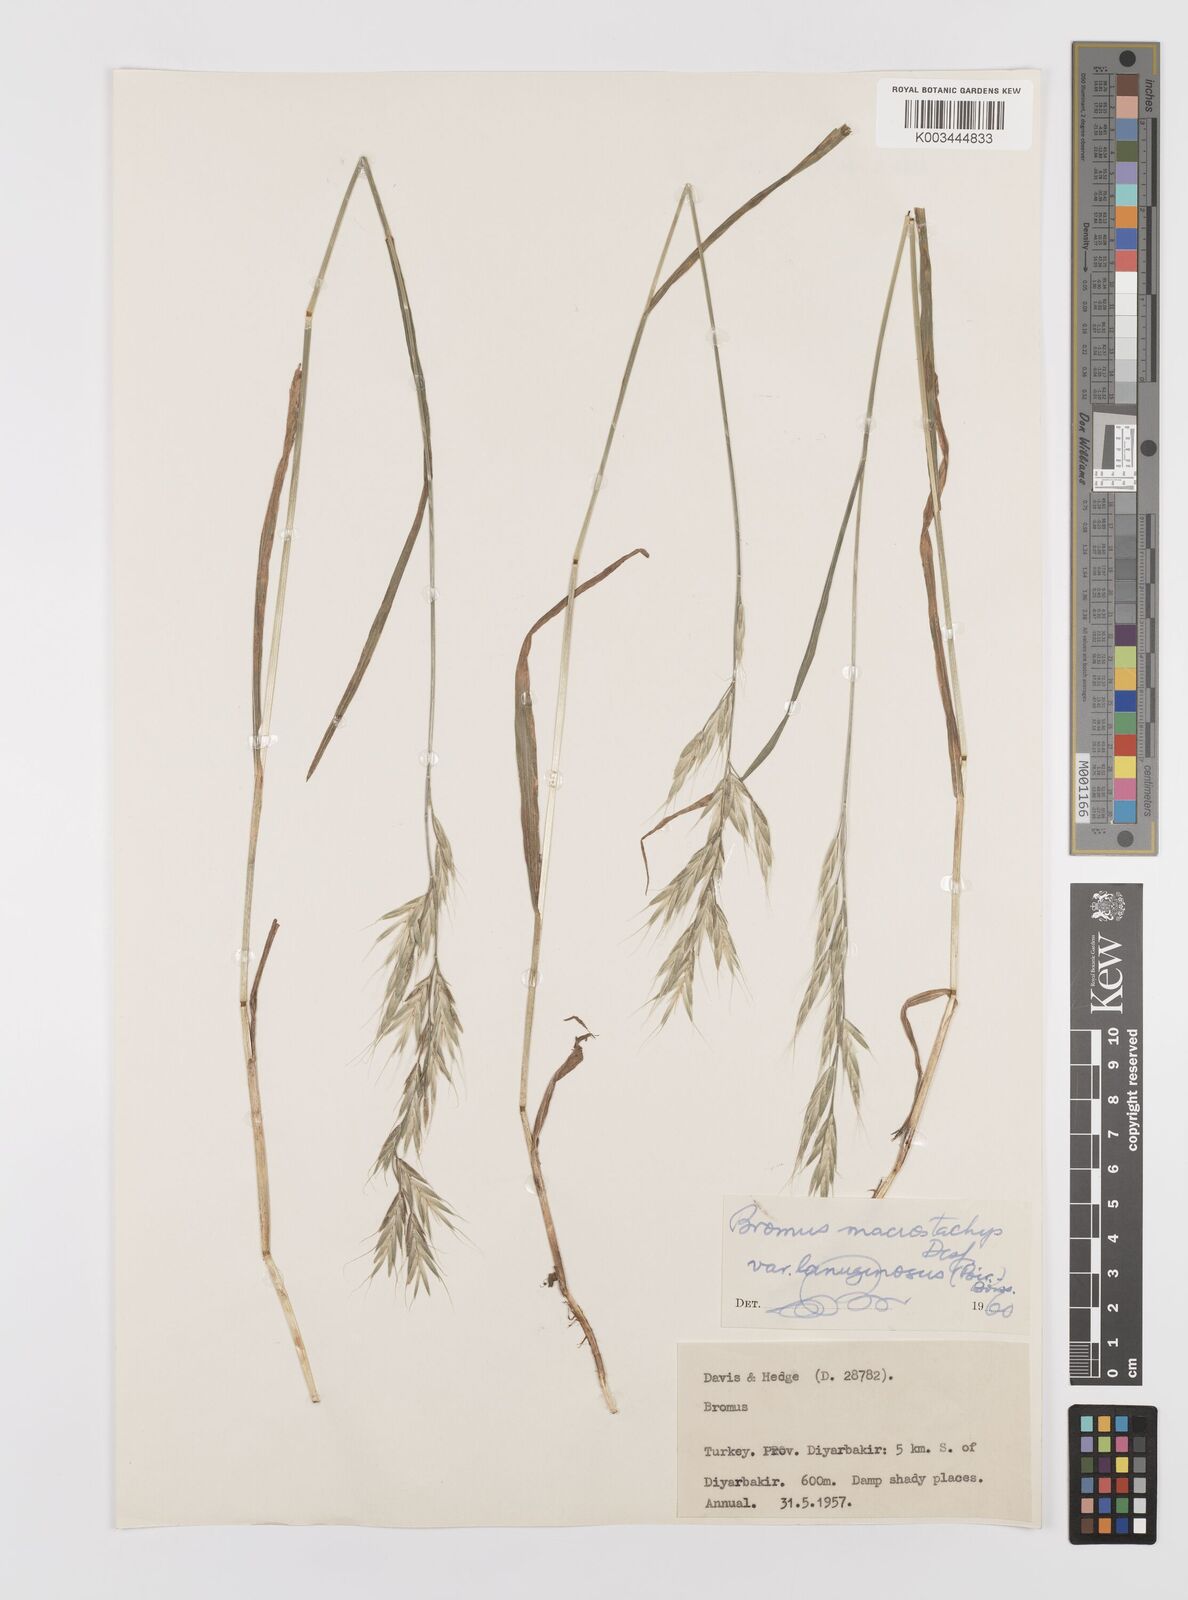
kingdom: Plantae
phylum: Tracheophyta
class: Liliopsida
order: Poales
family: Poaceae
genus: Bromus
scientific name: Bromus lanceolatus
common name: Mediterranean brome
